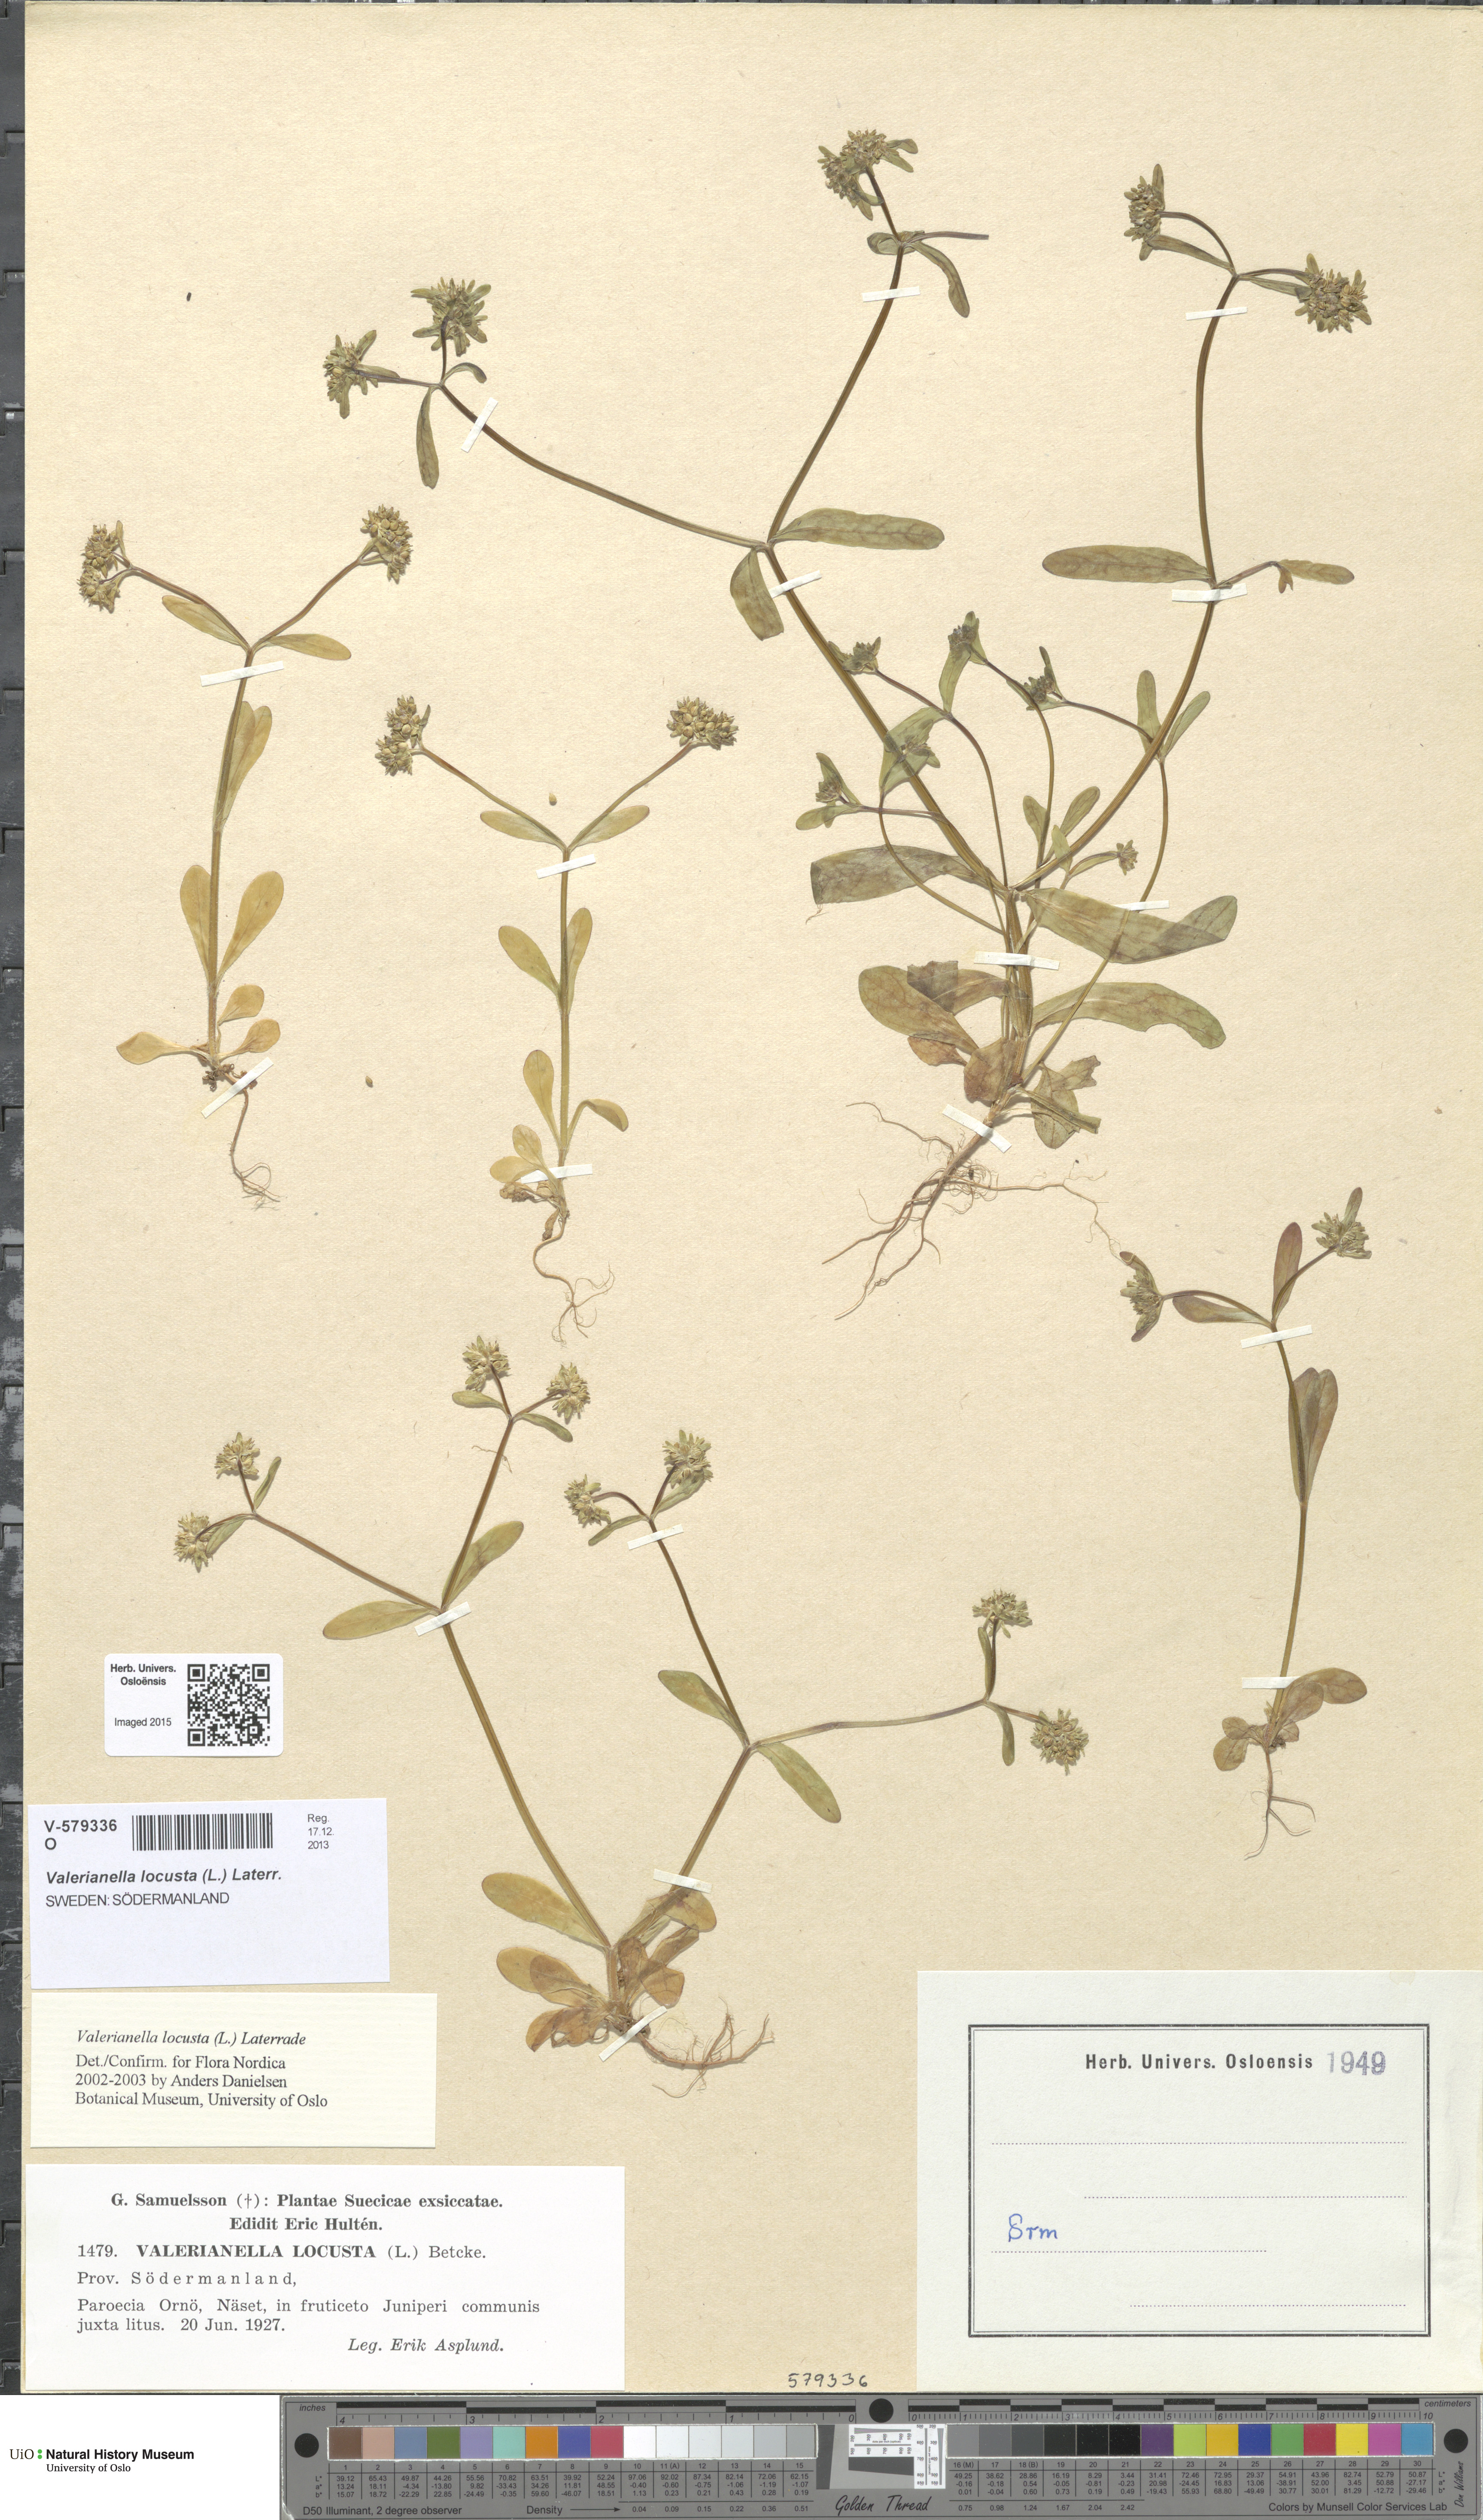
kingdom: Plantae
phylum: Tracheophyta
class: Magnoliopsida
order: Dipsacales
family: Caprifoliaceae
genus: Valerianella
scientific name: Valerianella locusta
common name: Common cornsalad
